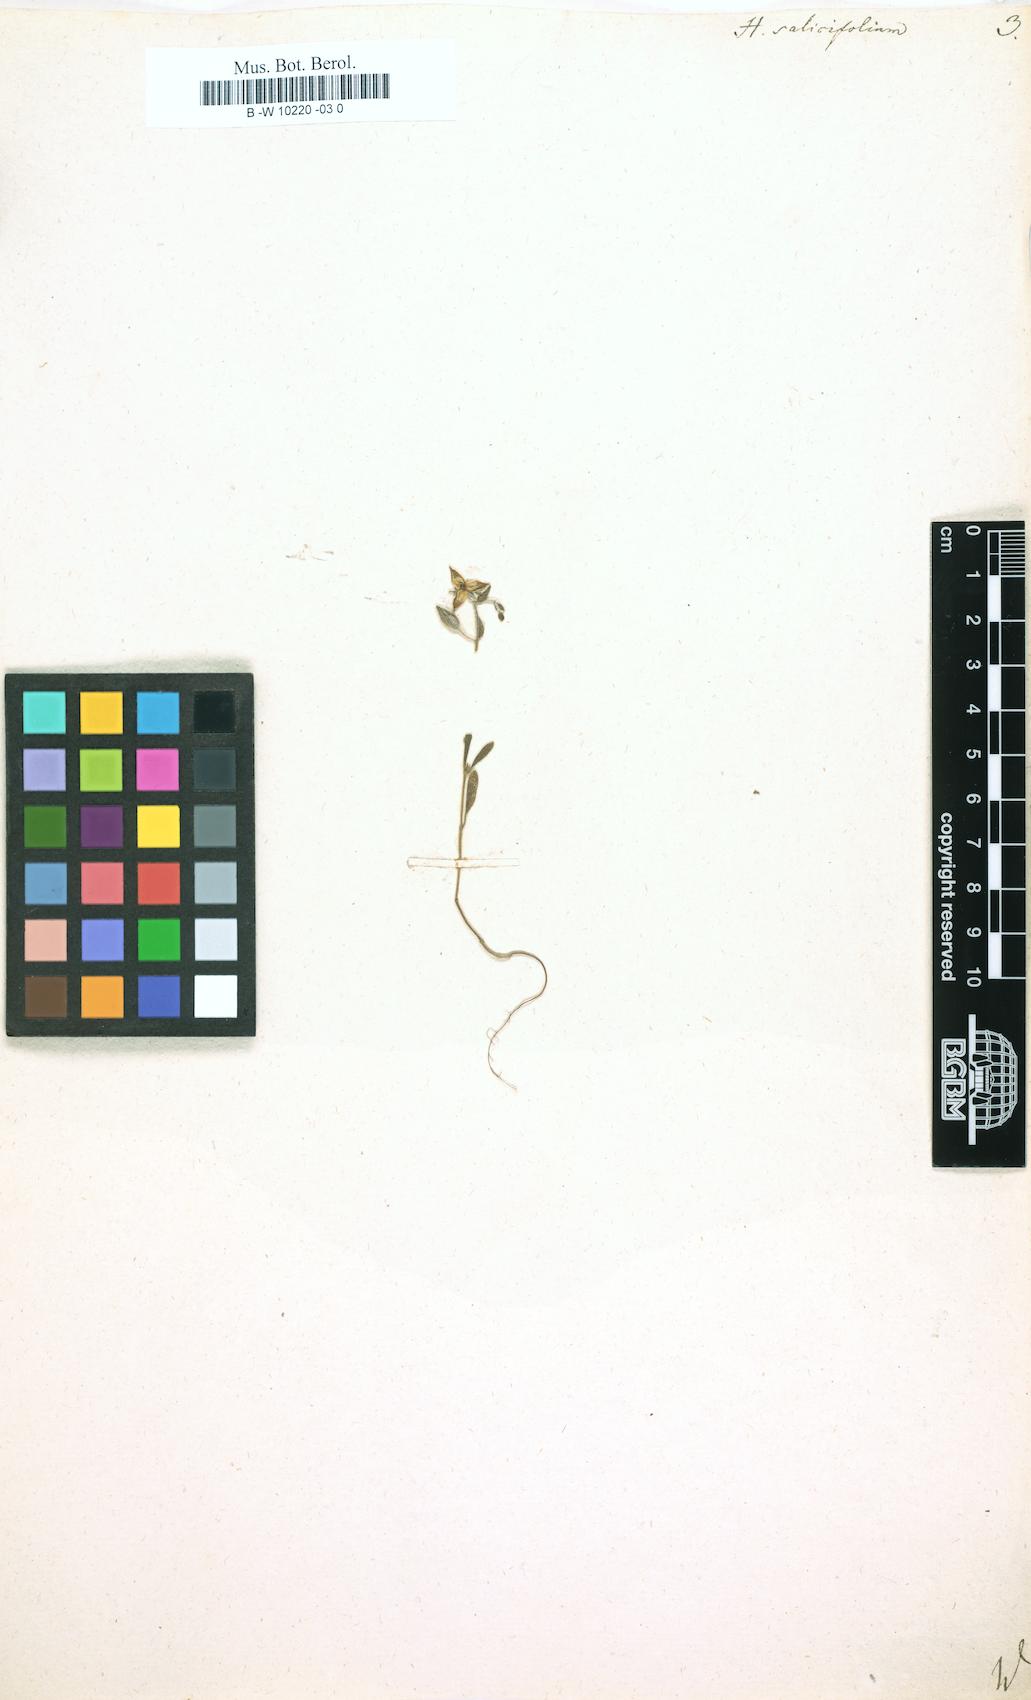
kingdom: Plantae
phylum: Tracheophyta
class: Magnoliopsida
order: Malvales
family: Cistaceae
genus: Helianthemum
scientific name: Helianthemum salicifolium
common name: Willowleaf frostweed
